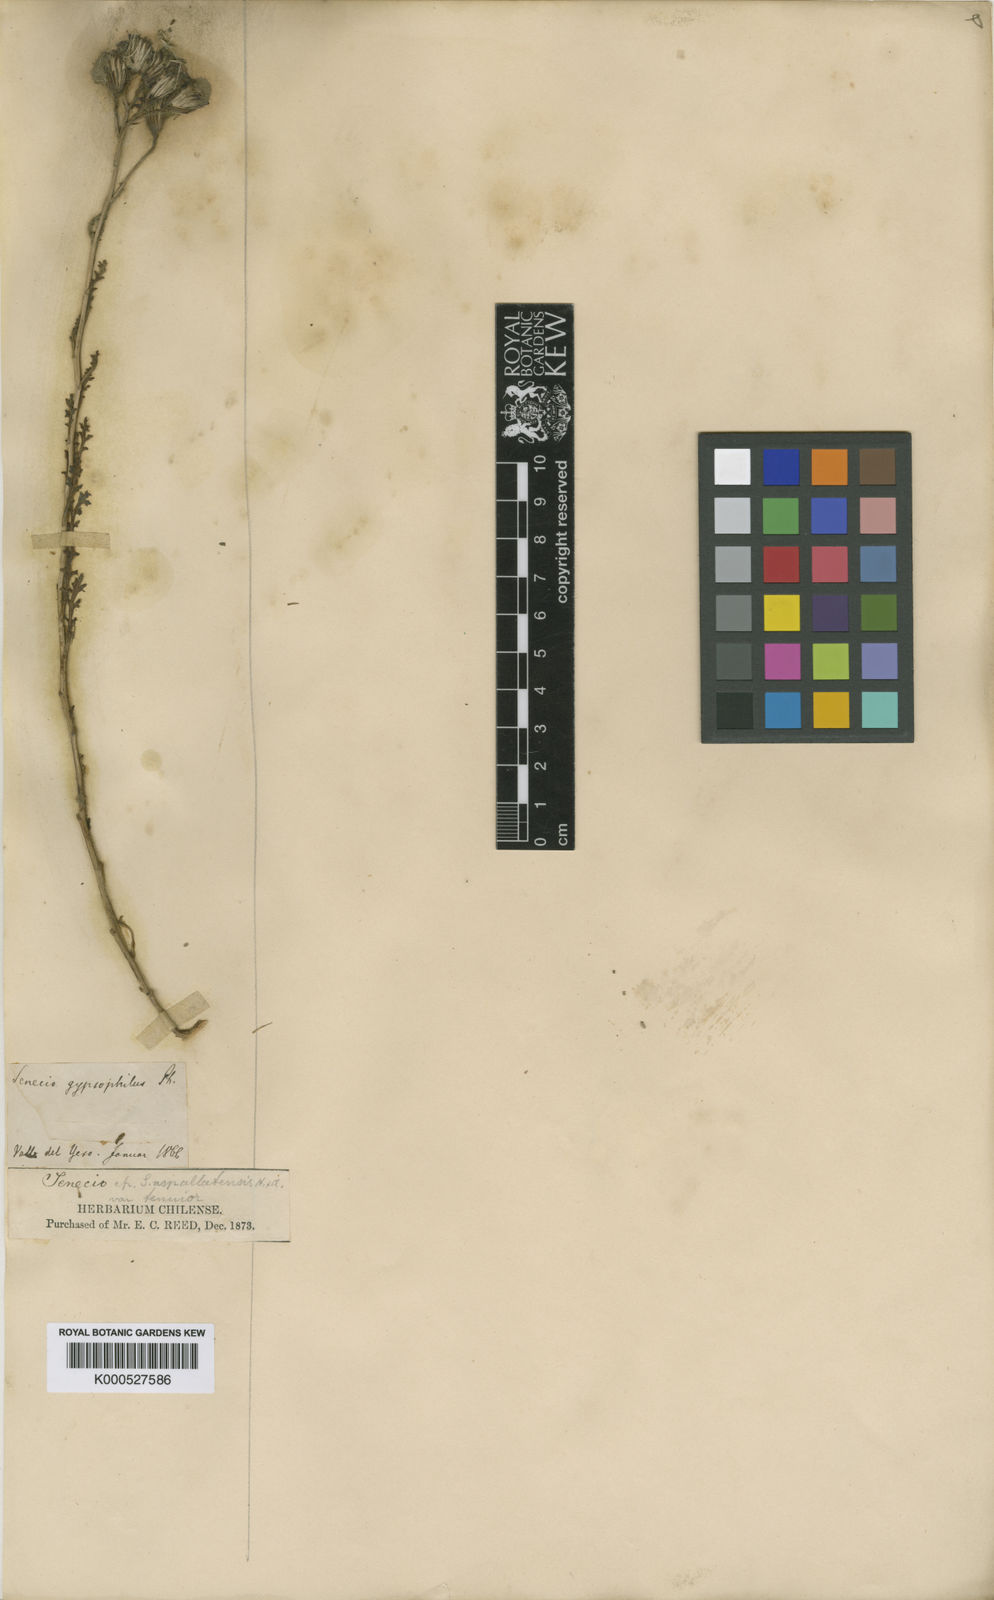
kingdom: Plantae
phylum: Tracheophyta
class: Magnoliopsida
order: Asterales
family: Asteraceae
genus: Senecio
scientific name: Senecio uspallatensis
